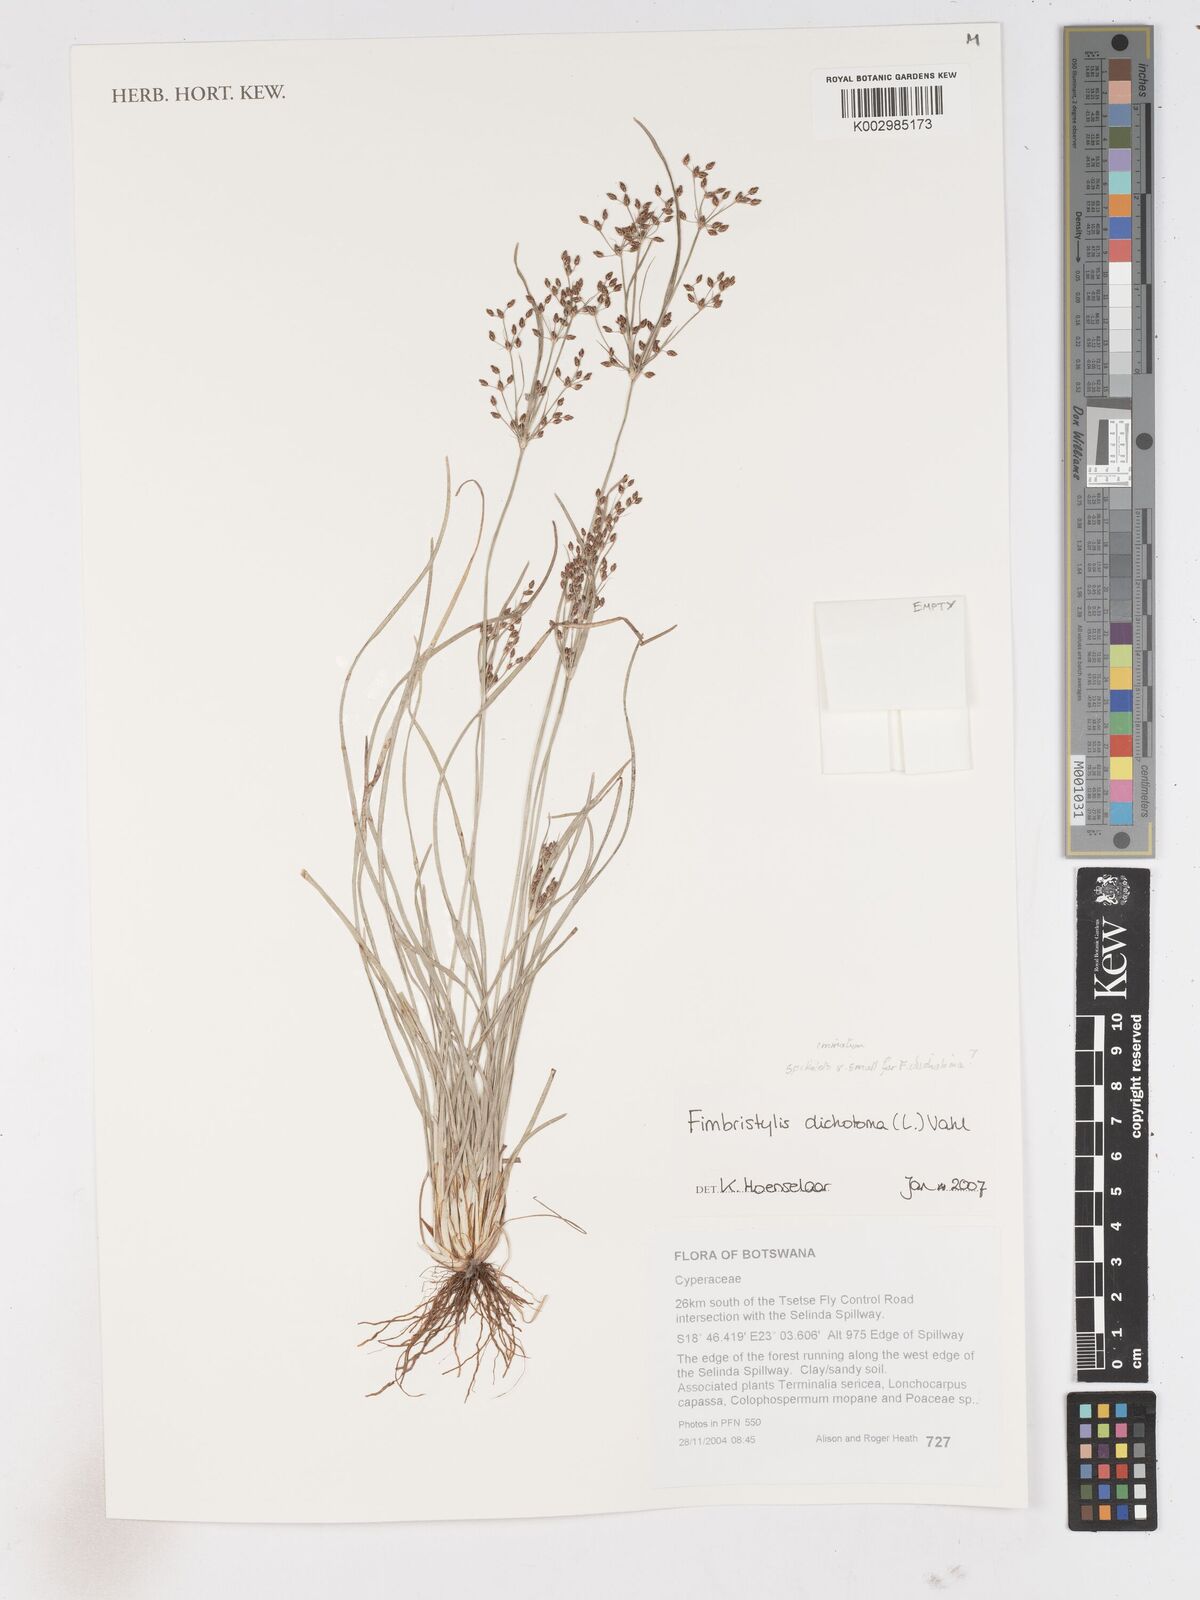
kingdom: Plantae
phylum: Tracheophyta
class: Liliopsida
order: Poales
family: Cyperaceae
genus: Fimbristylis
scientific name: Fimbristylis dichotoma
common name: Forked fimbry
